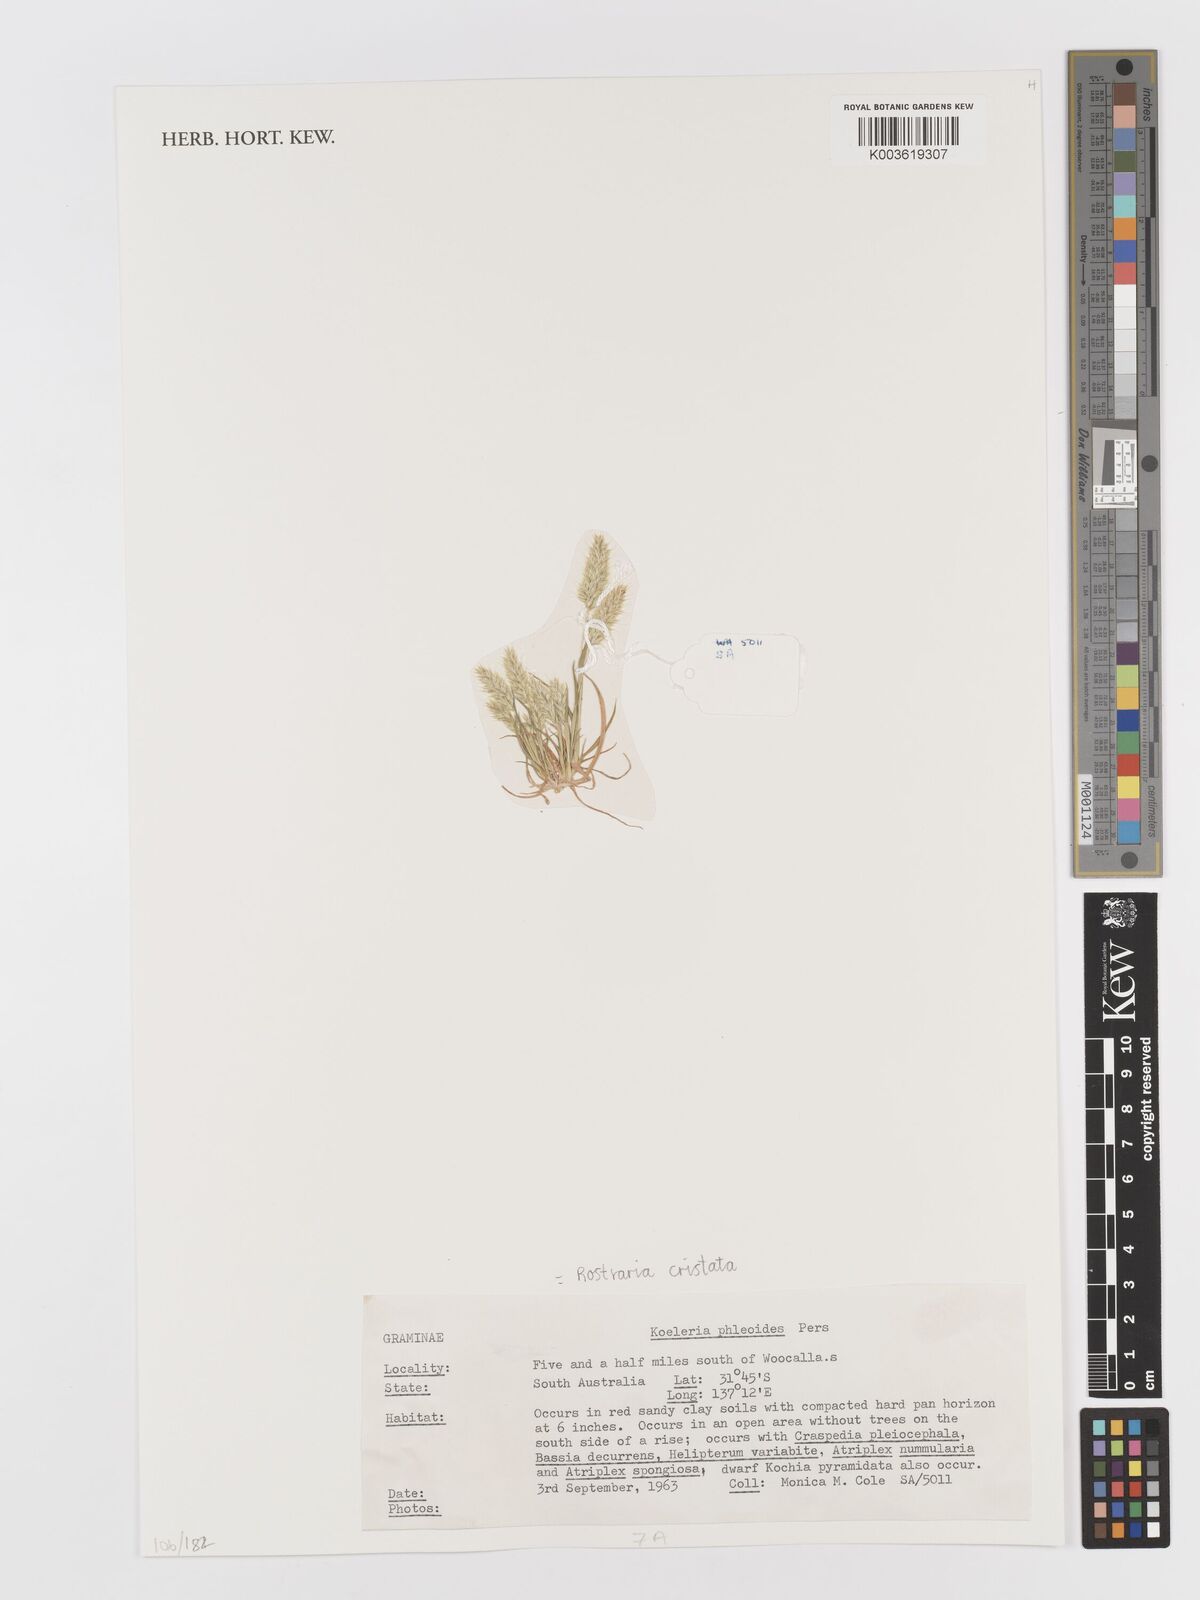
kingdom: Plantae
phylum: Tracheophyta
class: Liliopsida
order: Poales
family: Poaceae
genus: Rostraria
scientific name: Rostraria cristata
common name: Mediterranean hair-grass
